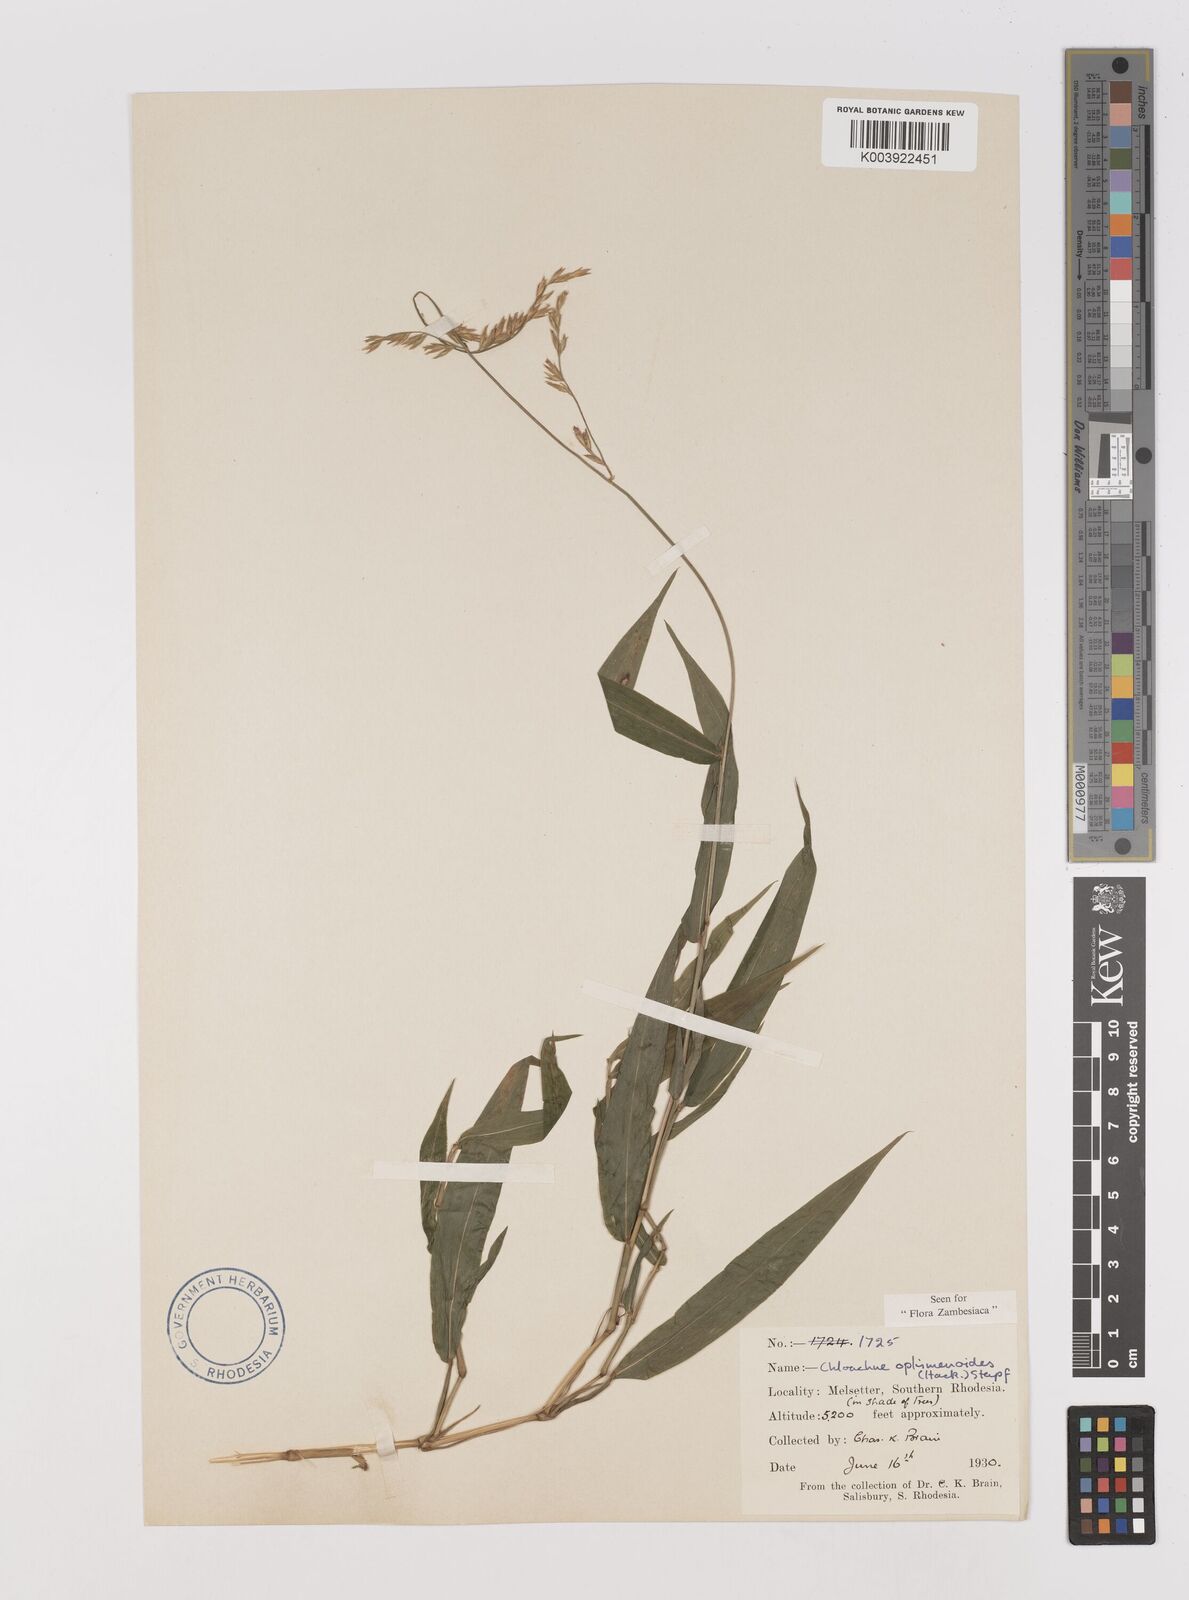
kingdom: Plantae
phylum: Tracheophyta
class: Liliopsida
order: Poales
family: Poaceae
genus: Poecilostachys
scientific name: Poecilostachys oplismenoides
